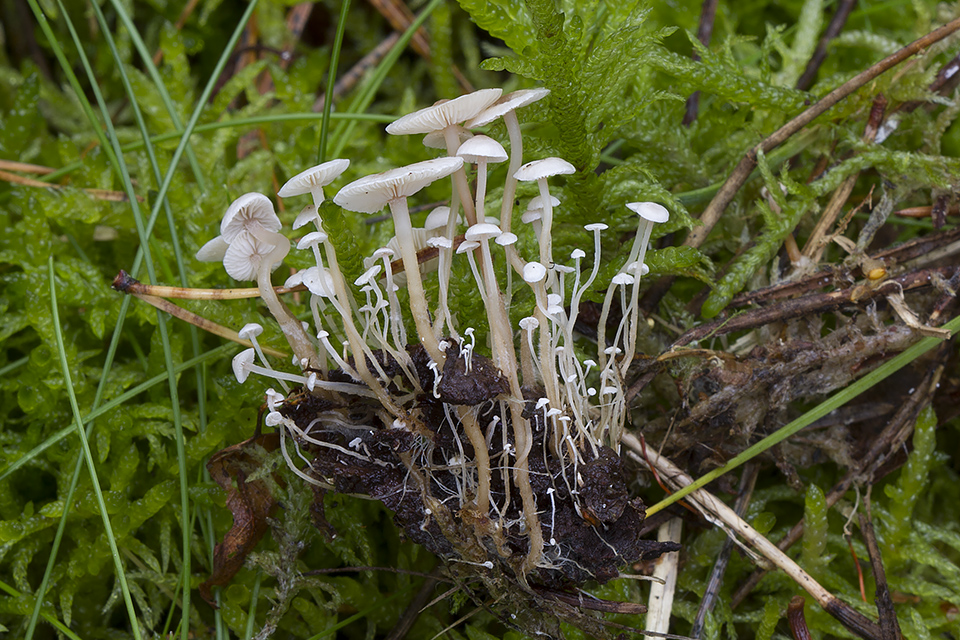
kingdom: Fungi
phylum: Basidiomycota
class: Agaricomycetes
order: Agaricales
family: Tricholomataceae
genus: Collybia
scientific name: Collybia cirrhata
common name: silke-lighat
